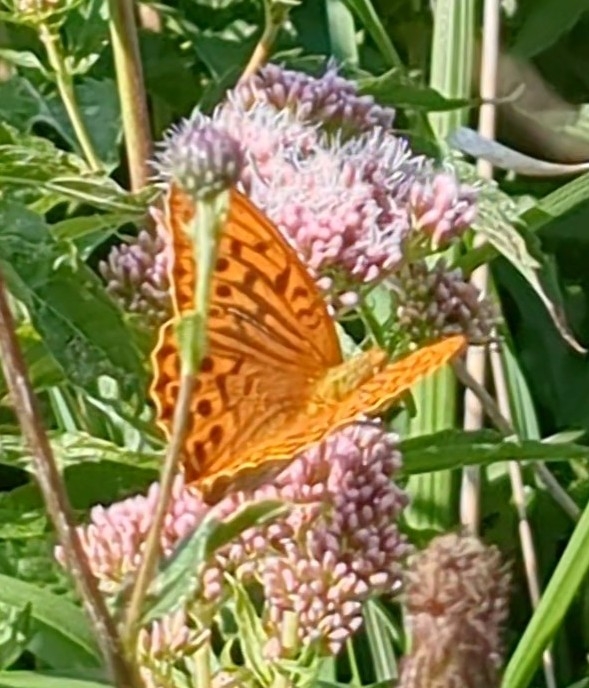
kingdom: Animalia
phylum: Arthropoda
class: Insecta
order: Lepidoptera
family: Nymphalidae
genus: Argynnis
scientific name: Argynnis paphia
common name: Kejserkåbe
